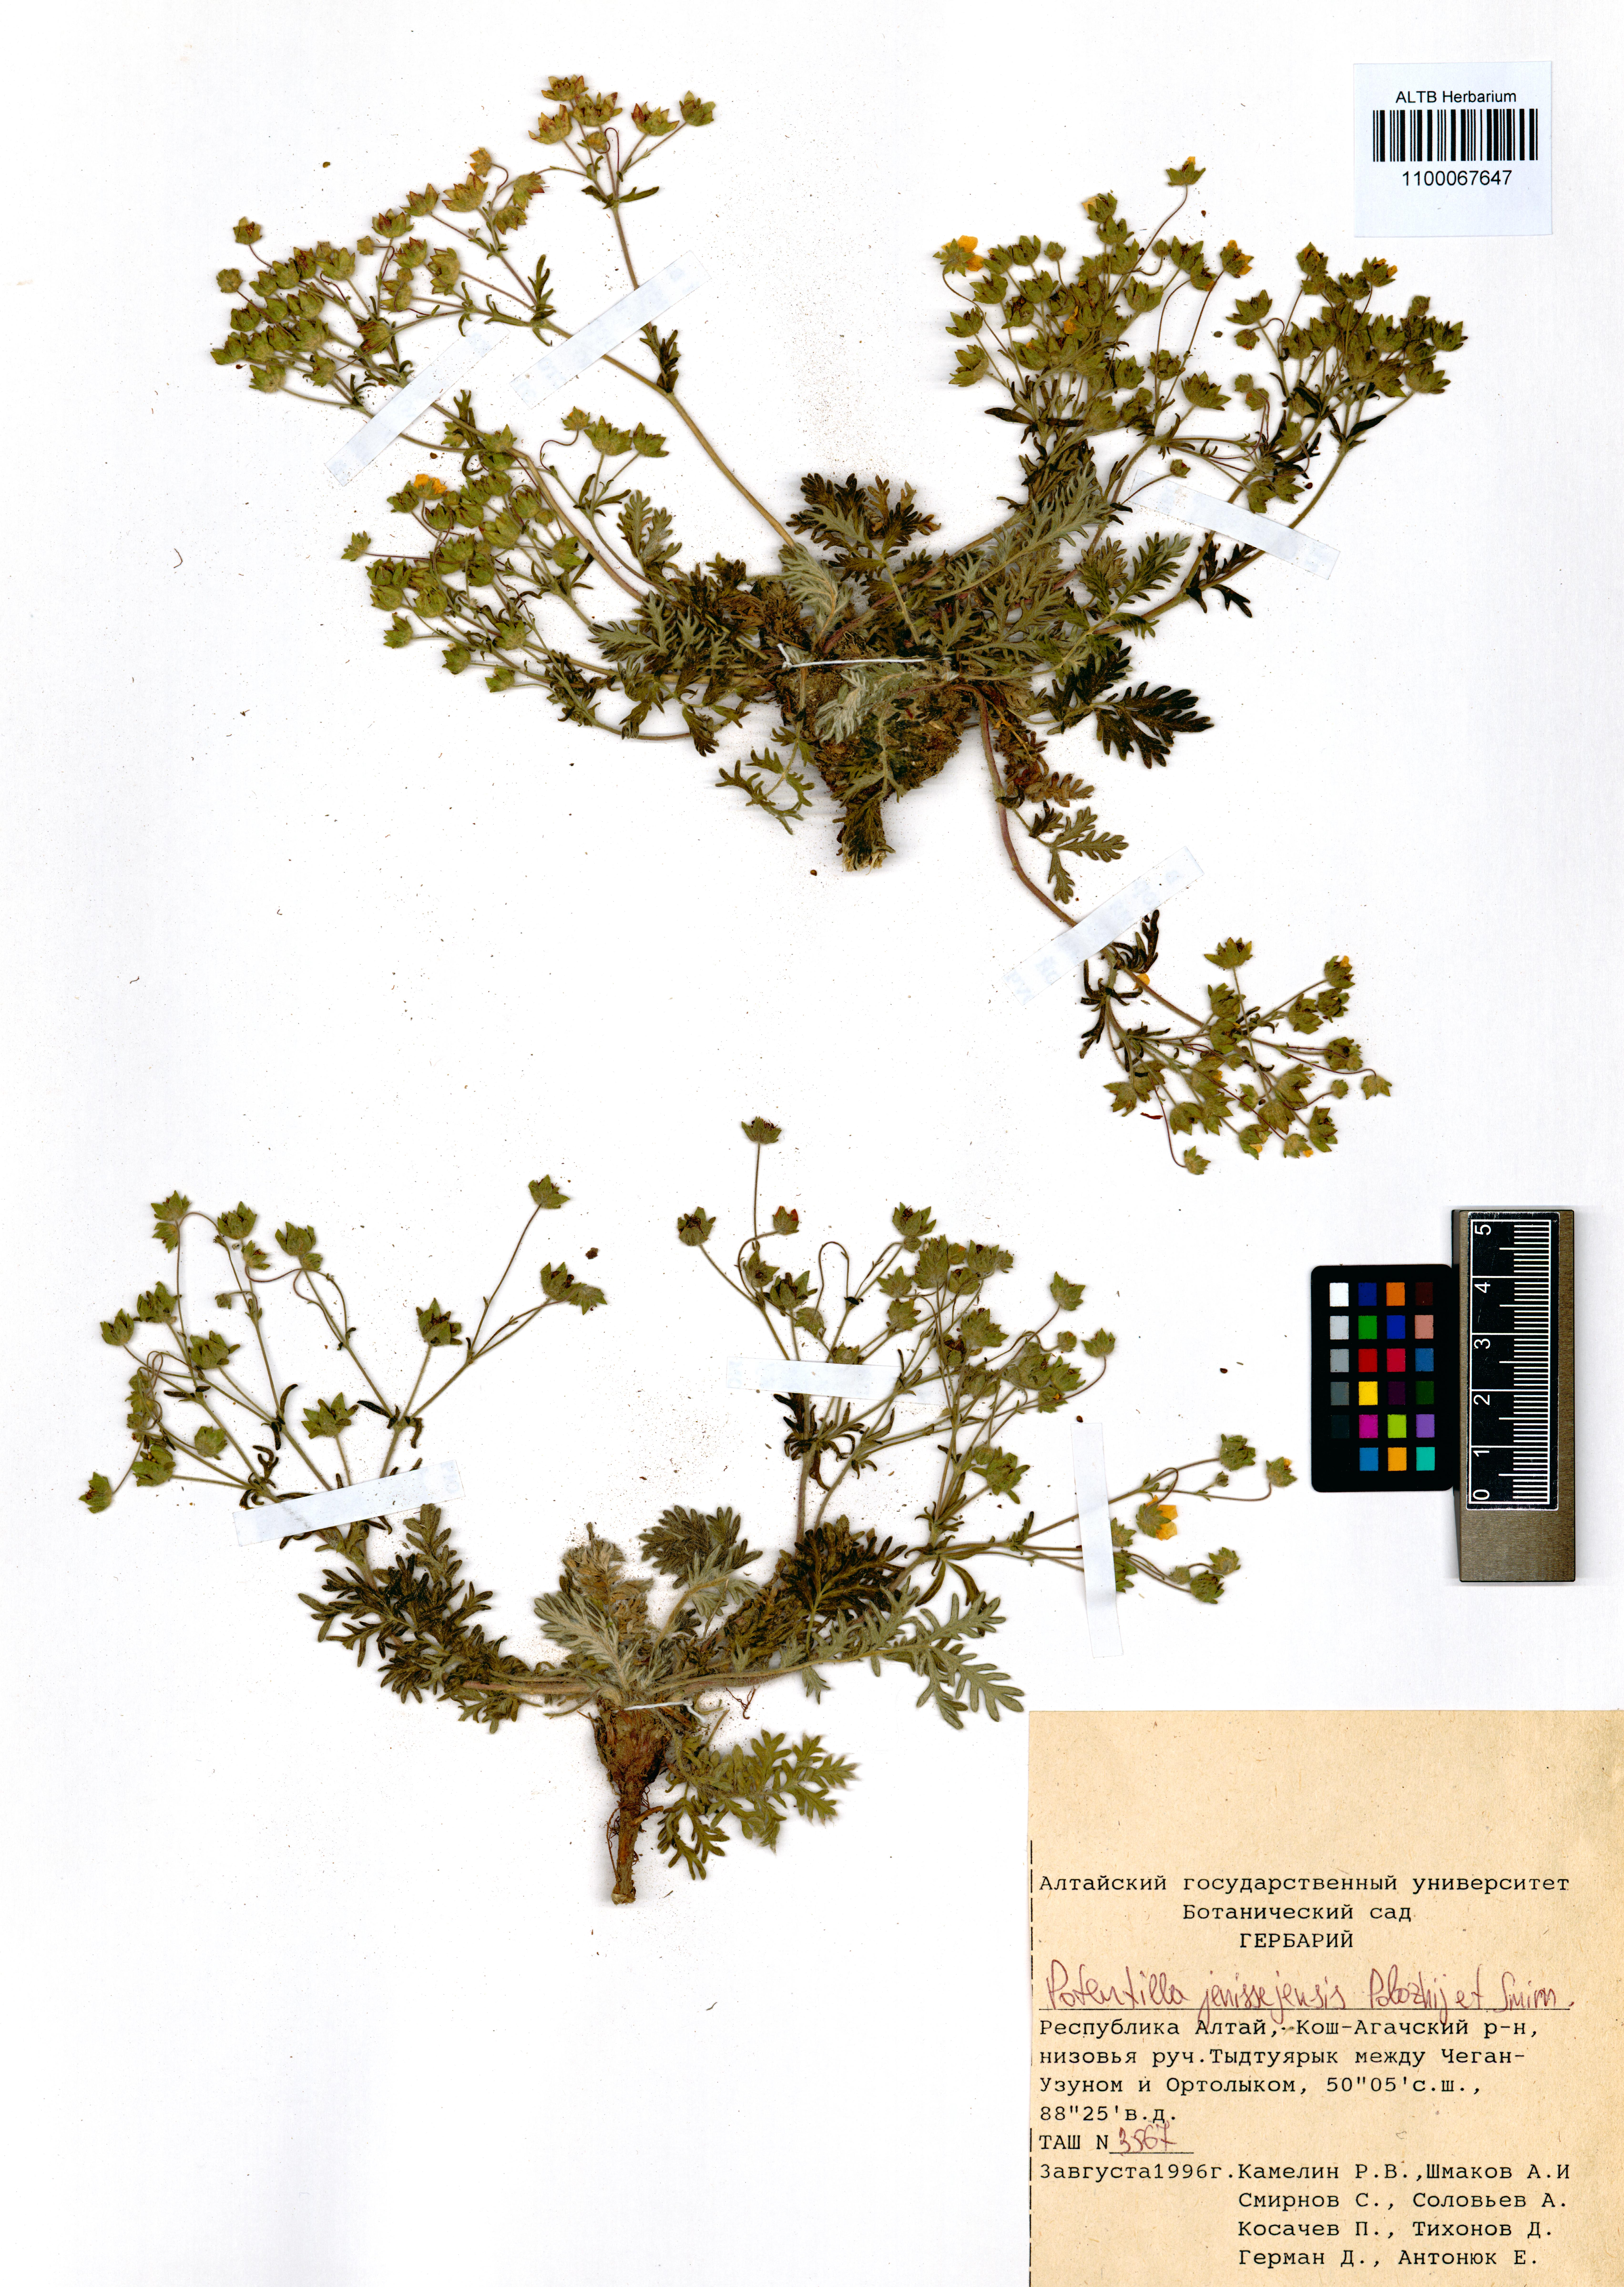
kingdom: Plantae
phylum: Tracheophyta
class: Magnoliopsida
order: Rosales
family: Rosaceae
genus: Potentilla
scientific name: Potentilla jenissejensis
